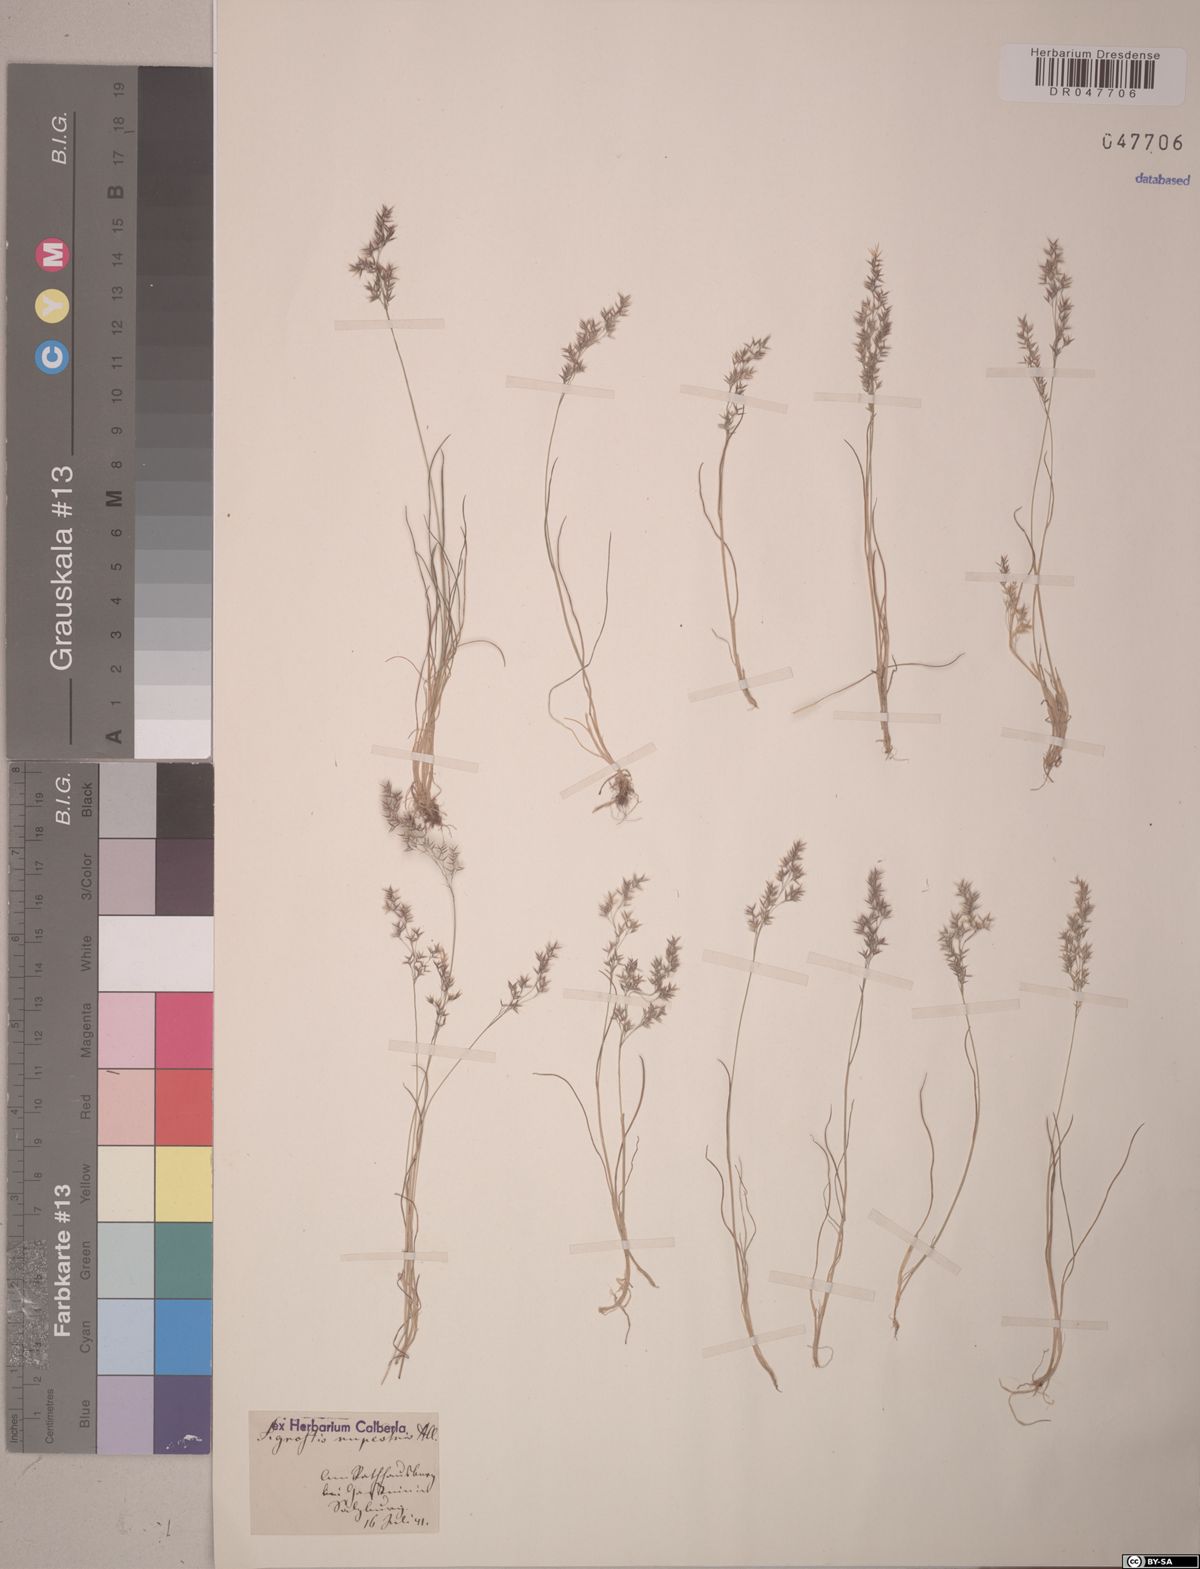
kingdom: Plantae
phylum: Tracheophyta
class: Liliopsida
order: Poales
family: Poaceae
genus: Agrostis
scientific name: Agrostis rupestris
